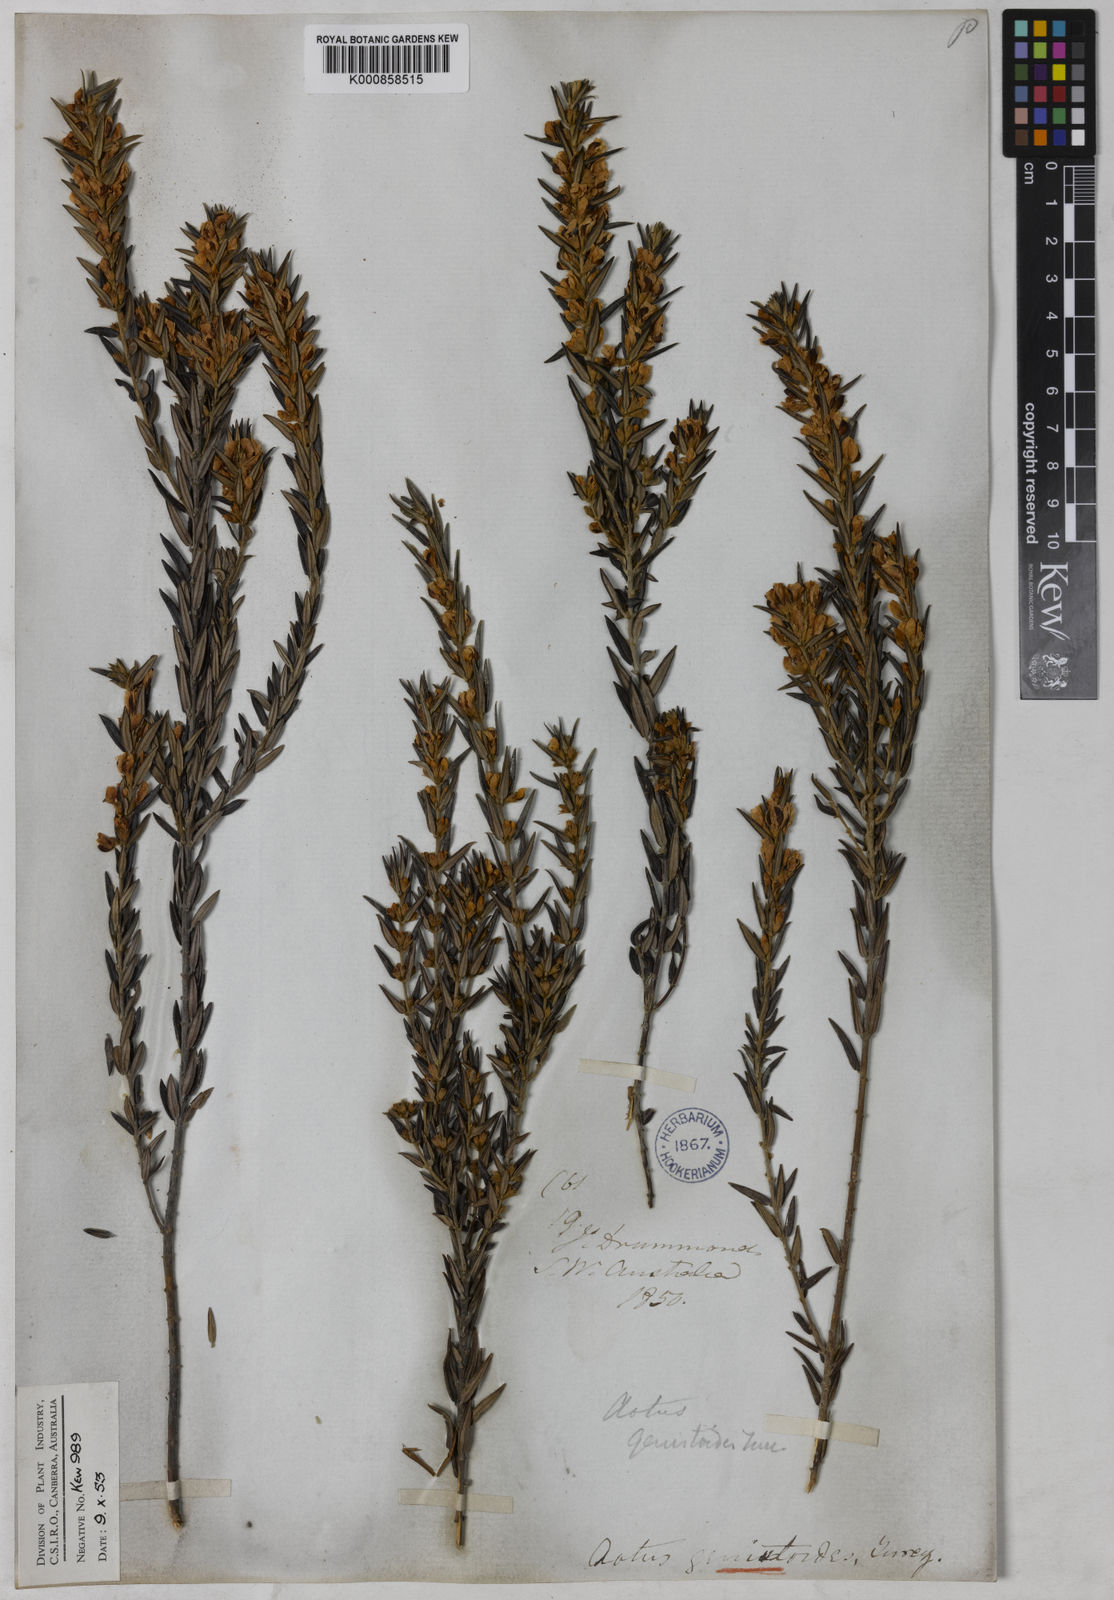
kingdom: Plantae
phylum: Tracheophyta
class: Magnoliopsida
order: Fabales
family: Fabaceae
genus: Aotus
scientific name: Aotus genistoides
